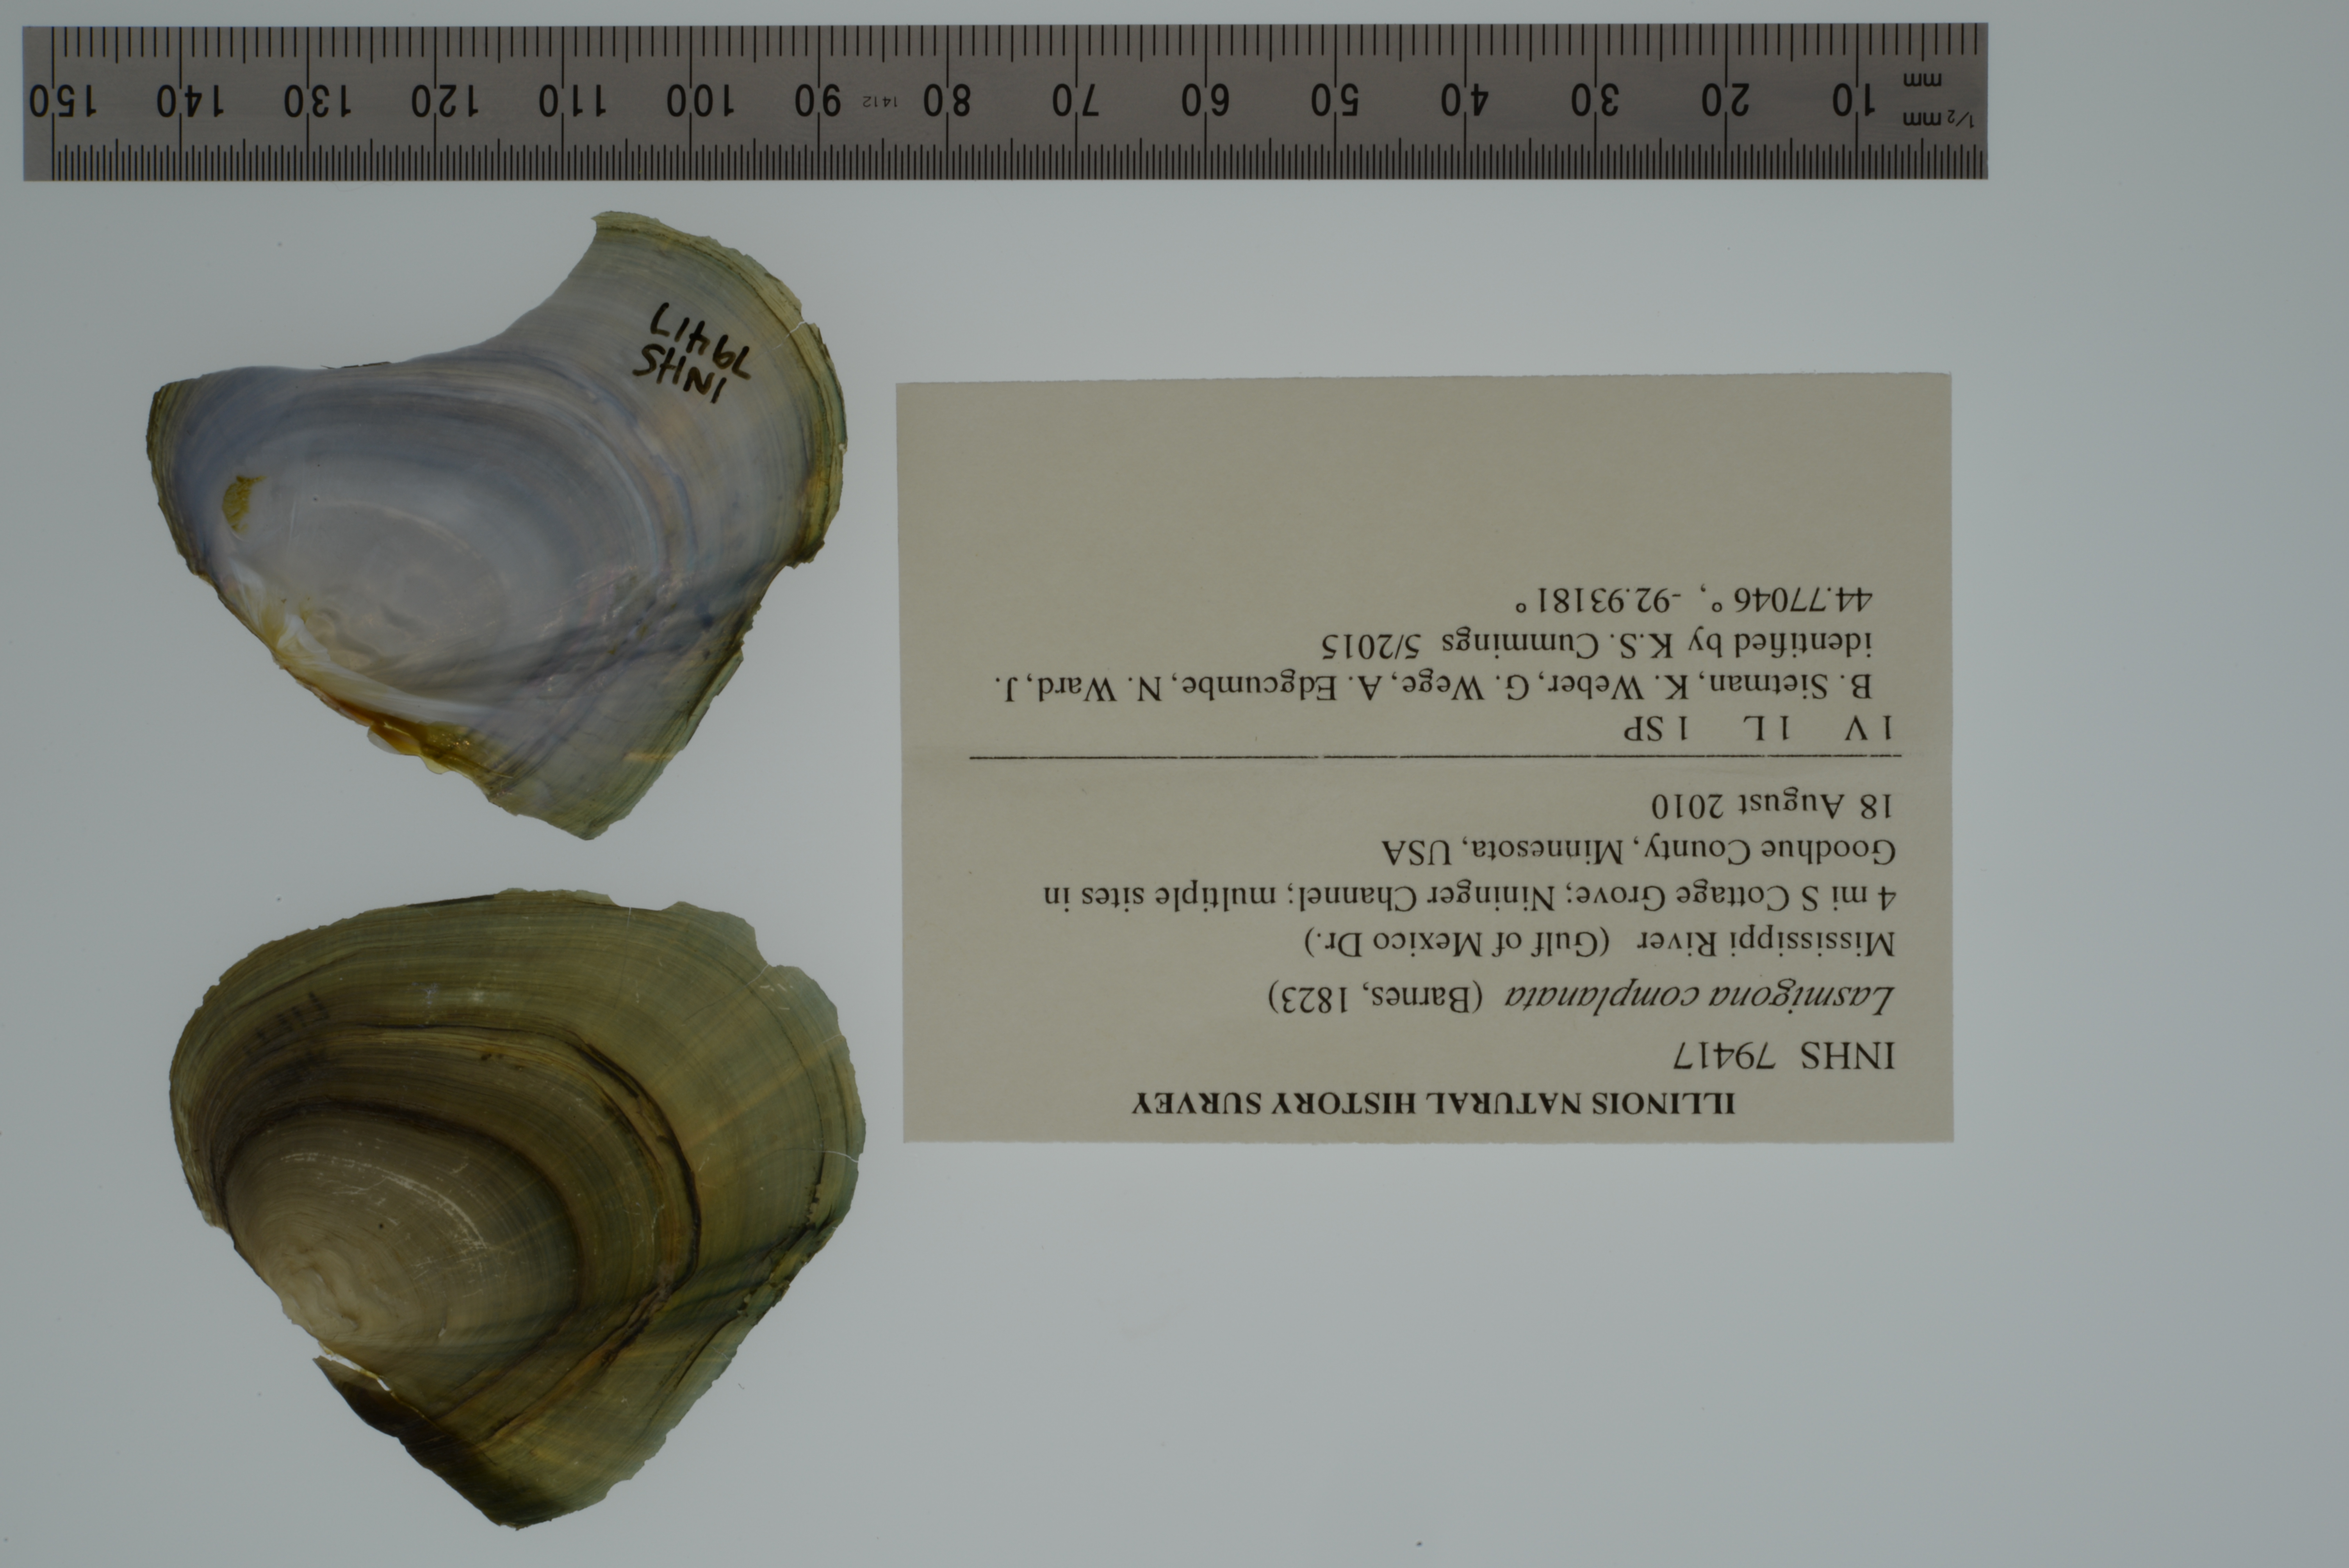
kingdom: Animalia
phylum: Mollusca
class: Bivalvia
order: Unionida
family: Unionidae
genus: Lasmigona
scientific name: Lasmigona complanata
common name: White heelsplitter
